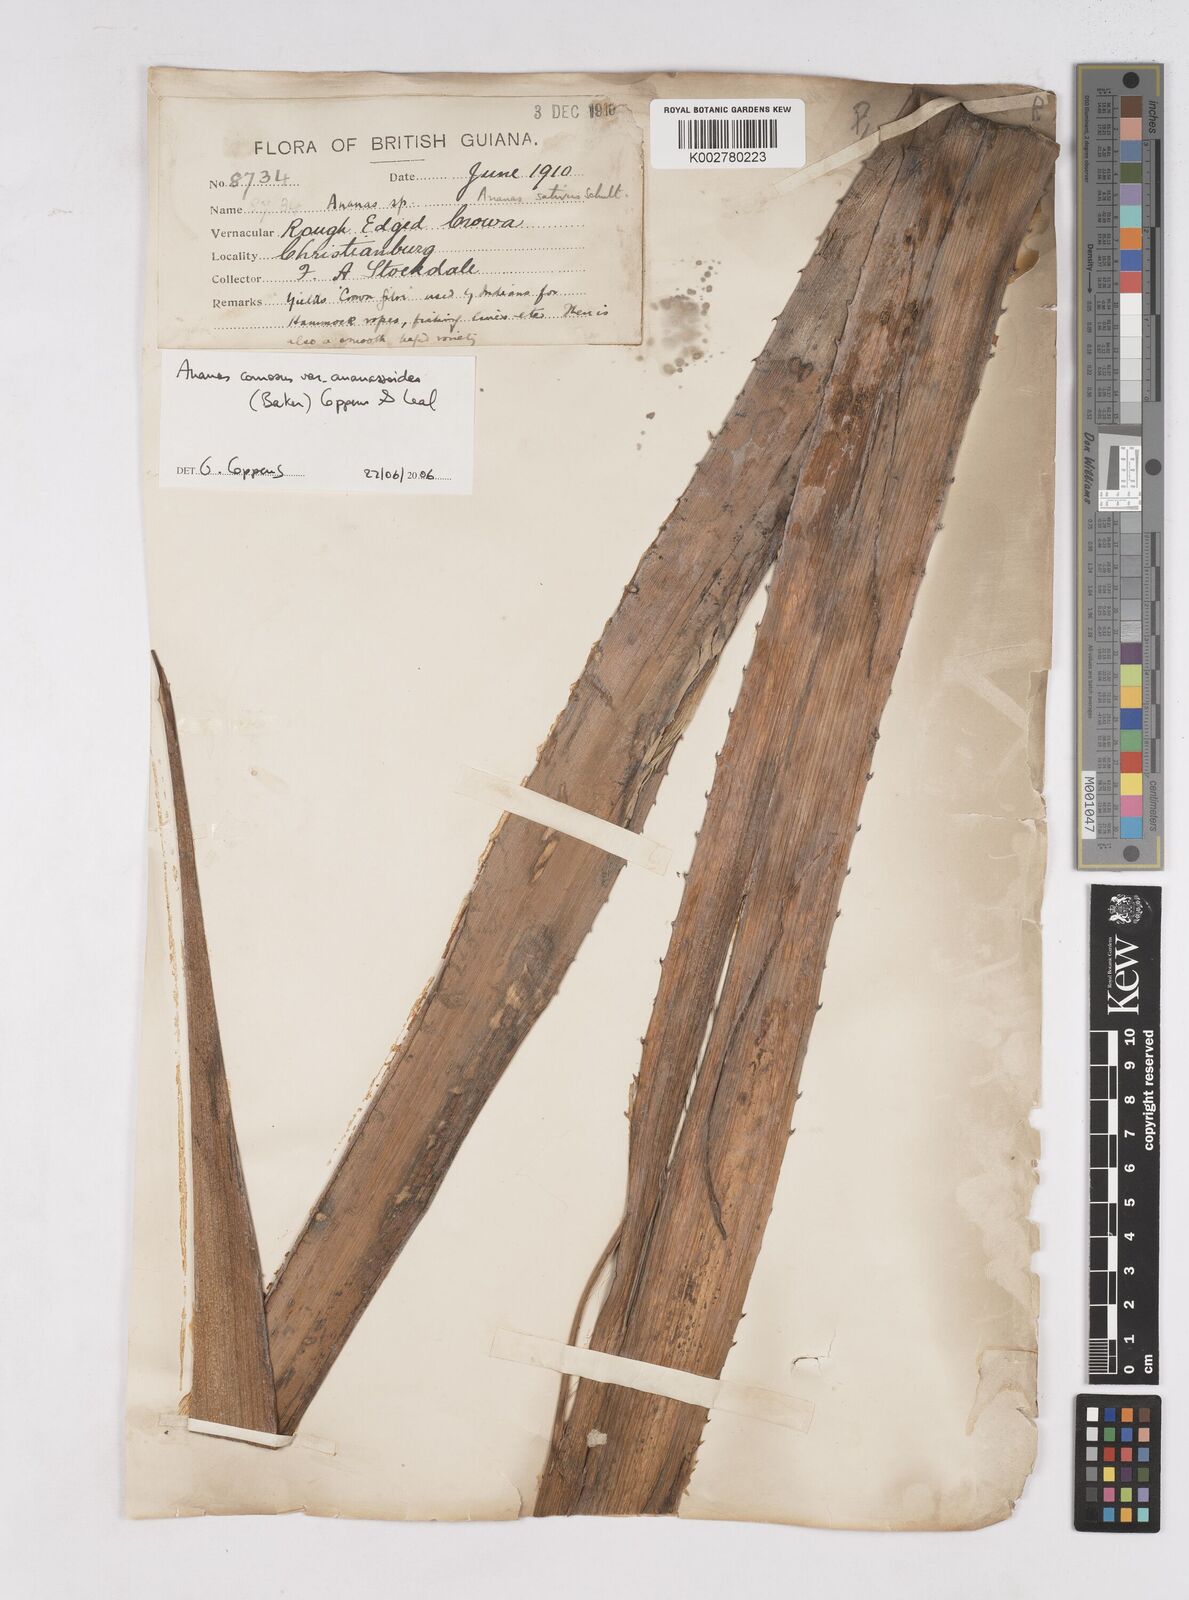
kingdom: Plantae
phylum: Tracheophyta
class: Liliopsida
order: Poales
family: Bromeliaceae
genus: Ananas
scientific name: Ananas comosus
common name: Pineapple
